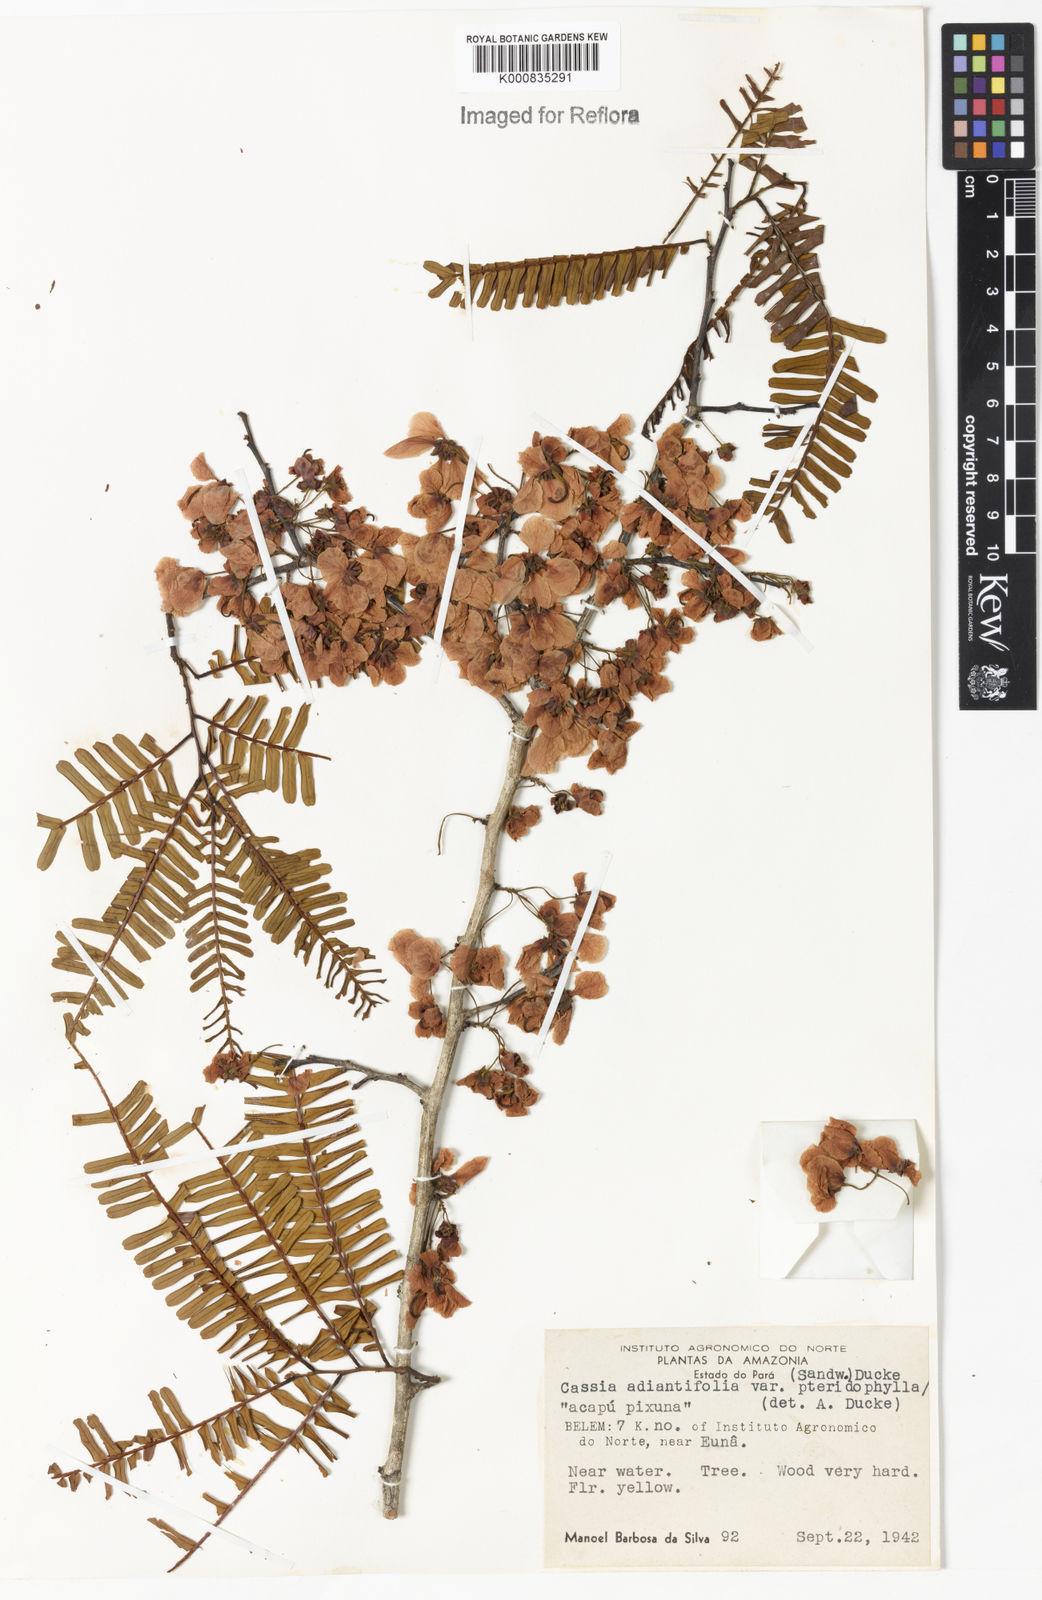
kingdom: Plantae
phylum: Tracheophyta
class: Magnoliopsida
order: Fabales
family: Fabaceae
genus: Chamaecrista
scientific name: Chamaecrista adiantifolia
